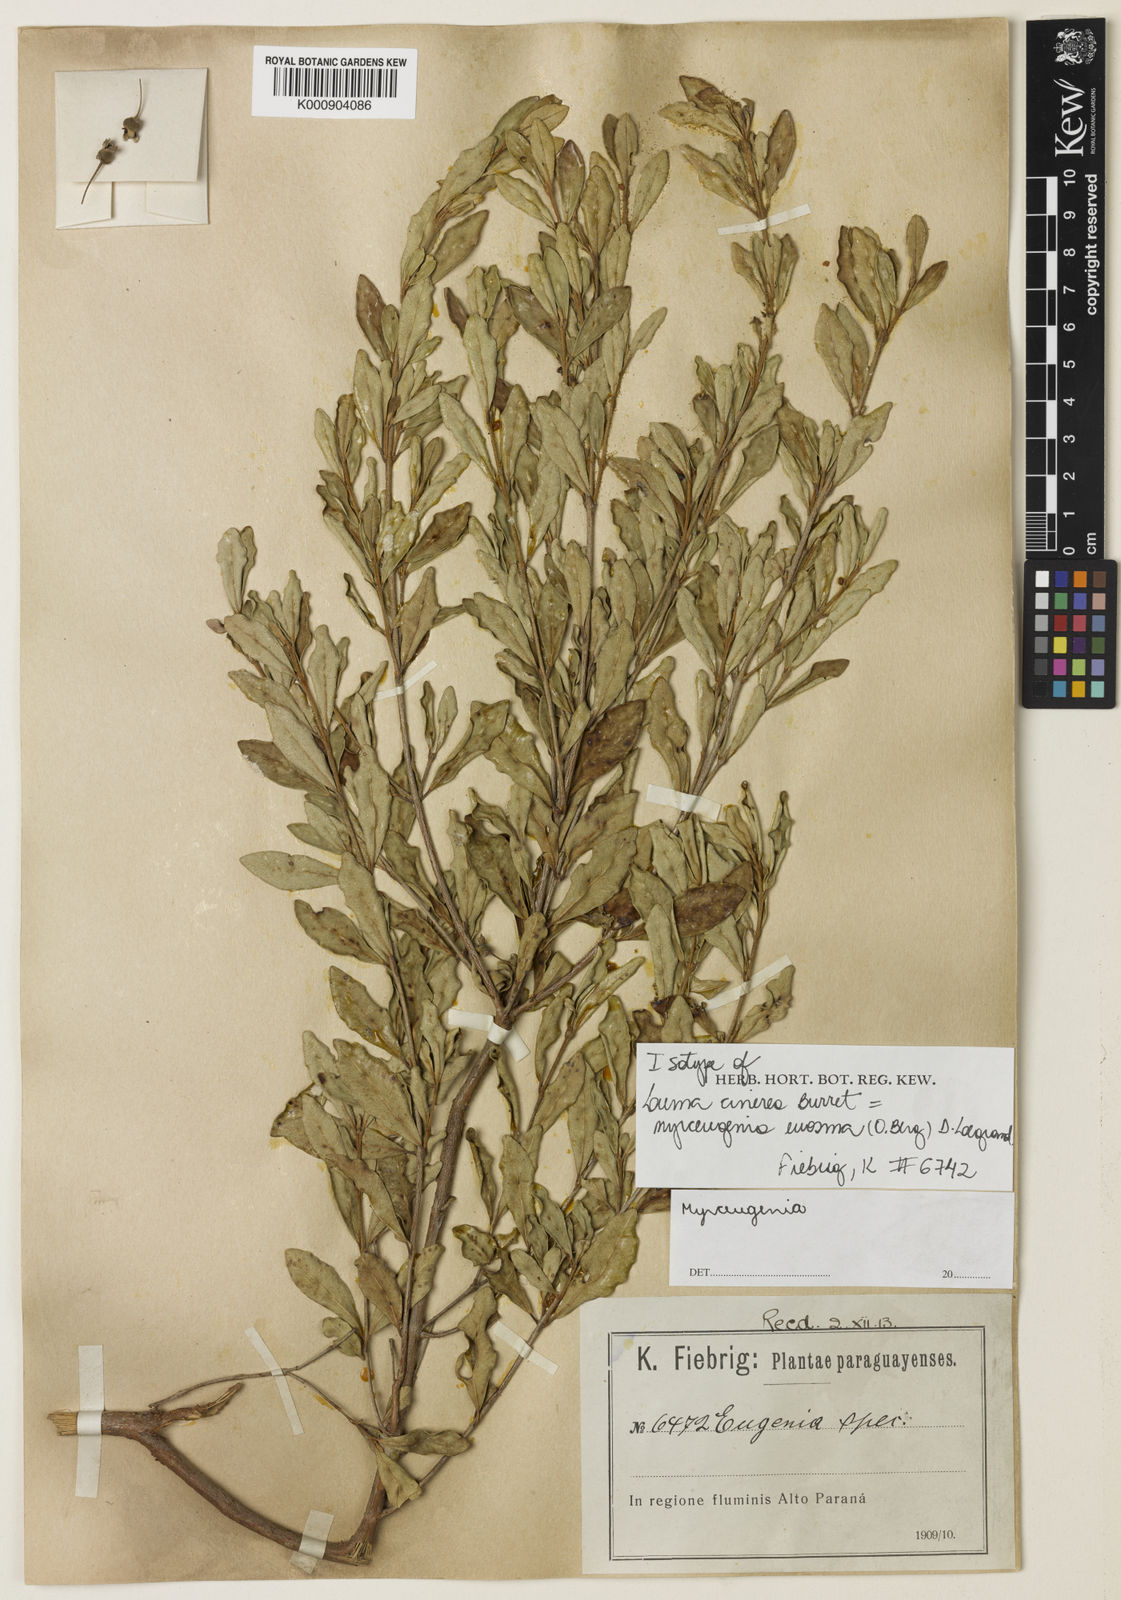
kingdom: Plantae
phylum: Tracheophyta
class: Magnoliopsida
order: Myrtales
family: Myrtaceae
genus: Myrceugenia
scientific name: Myrceugenia euosma
